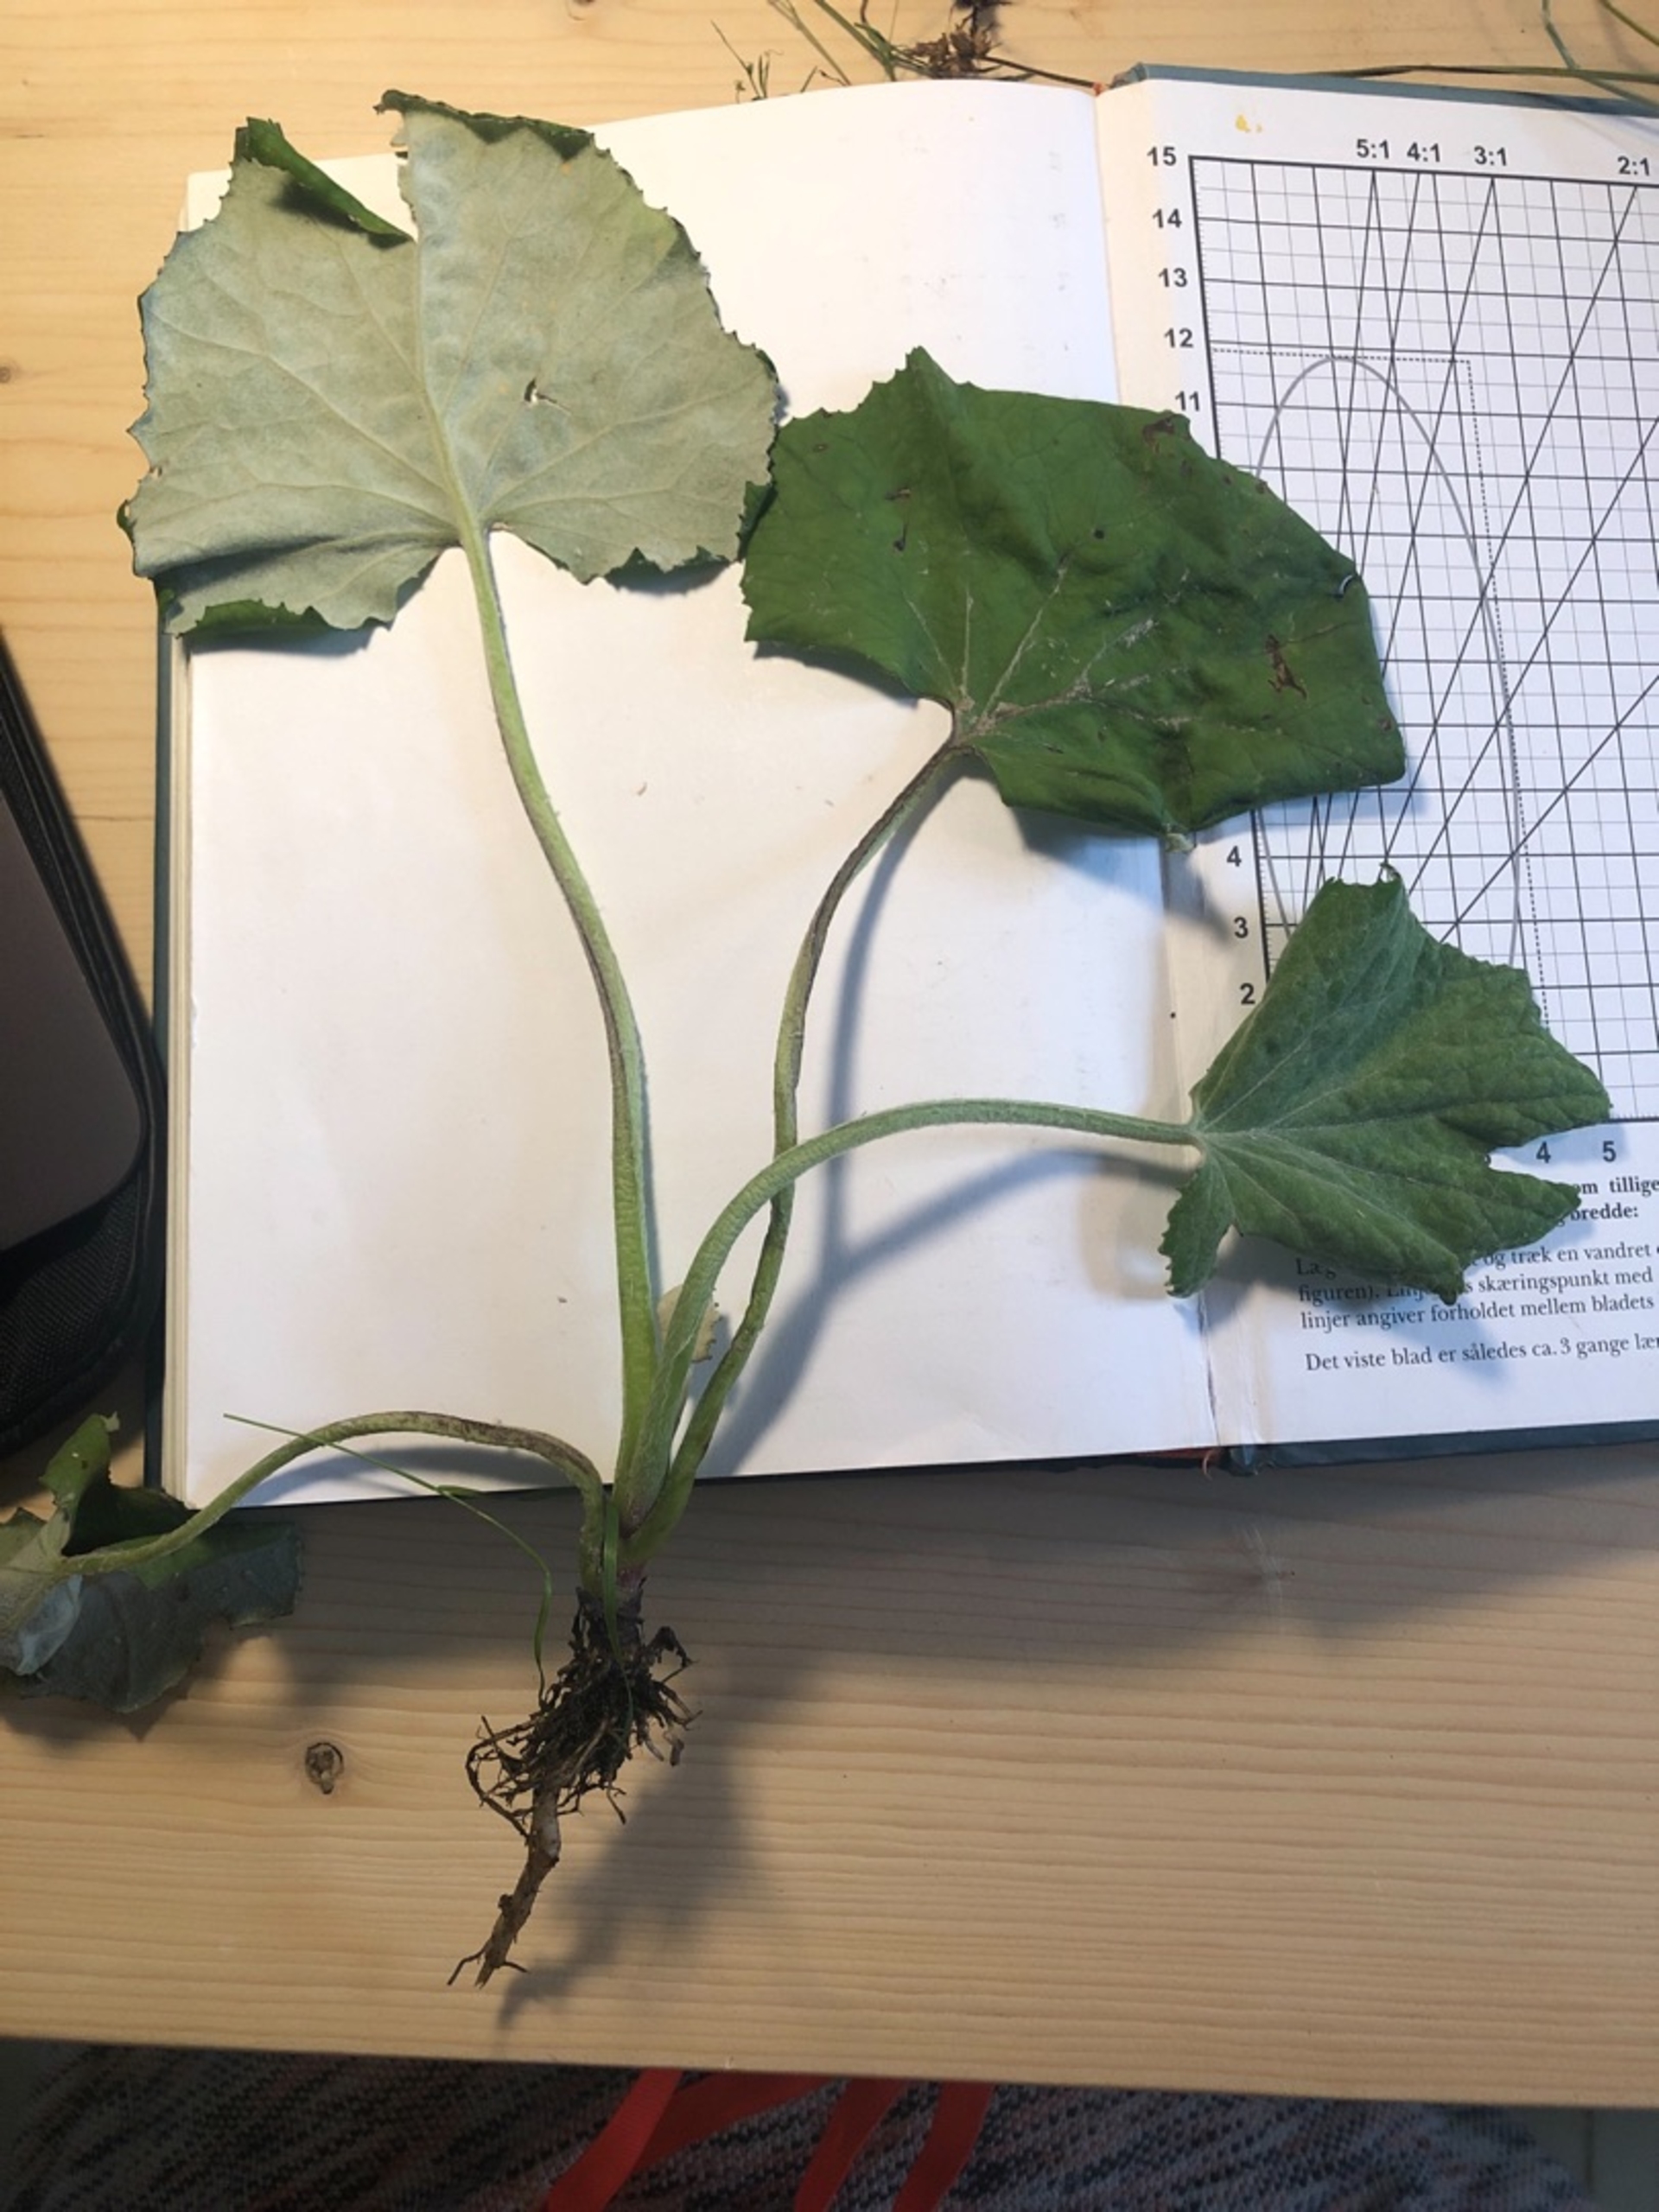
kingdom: Plantae
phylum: Tracheophyta
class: Magnoliopsida
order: Asterales
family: Asteraceae
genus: Tussilago
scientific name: Tussilago farfara
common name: Følfod
